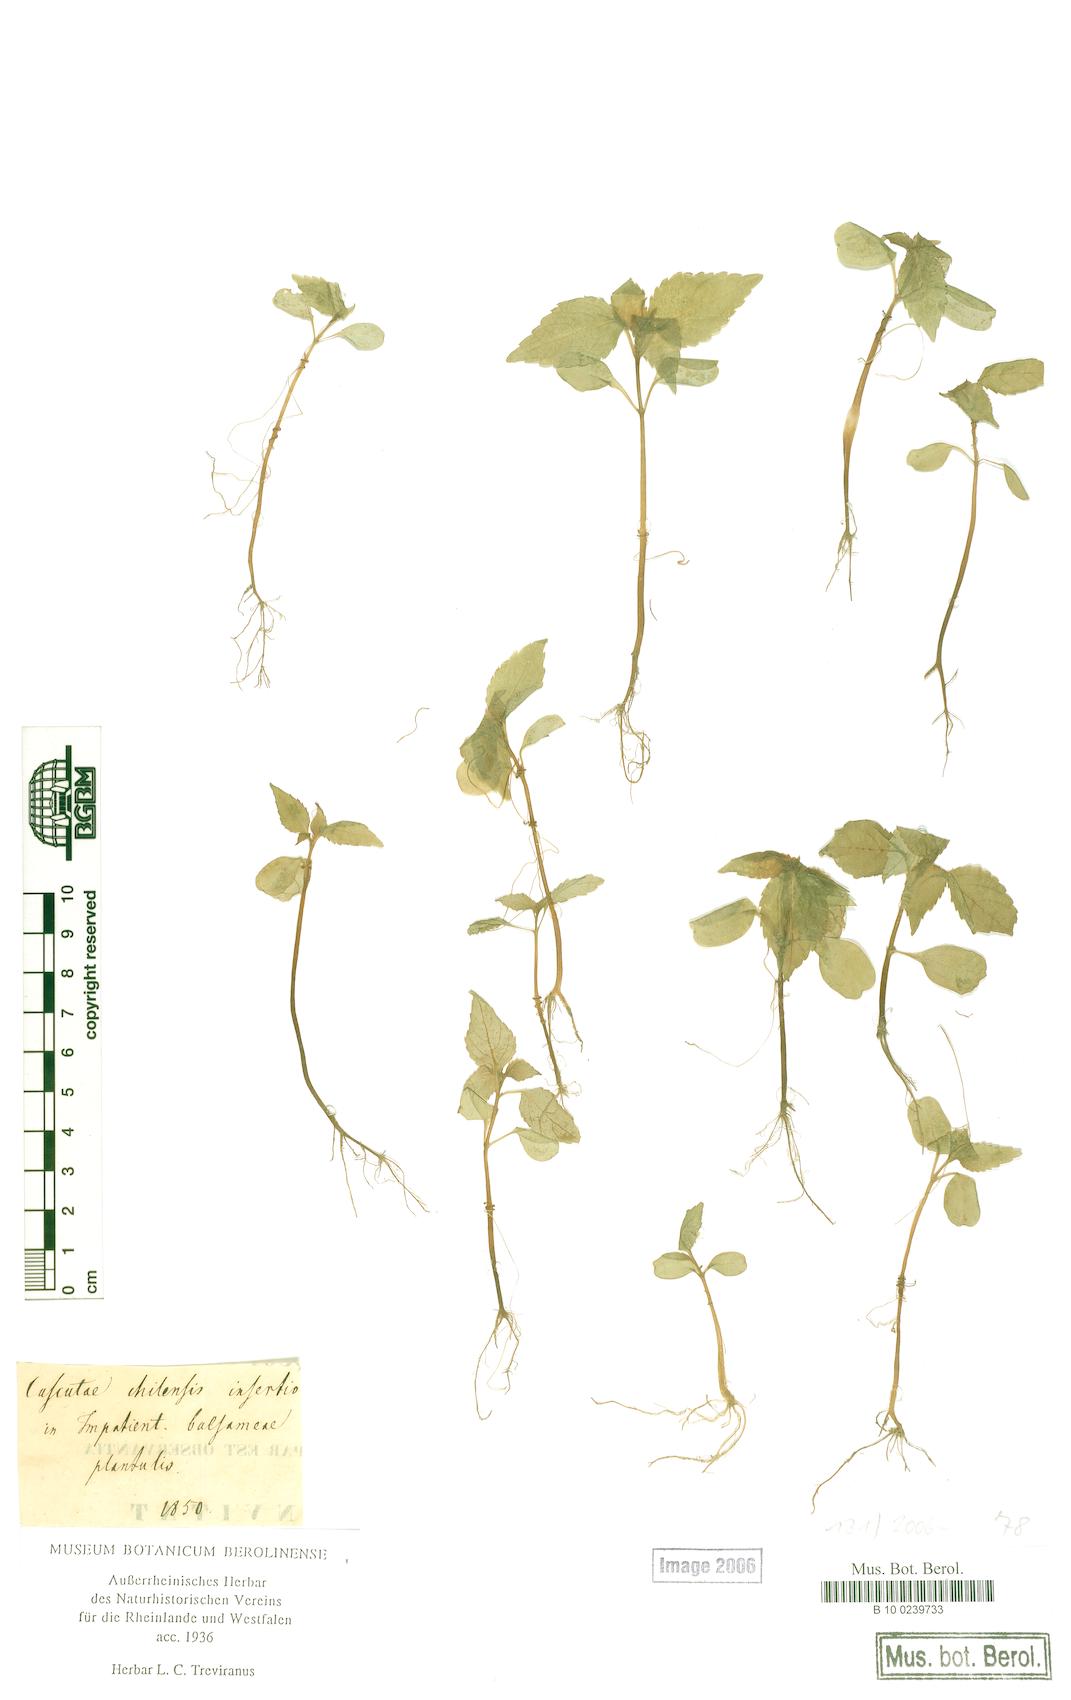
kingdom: Plantae
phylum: Tracheophyta
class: Magnoliopsida
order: Solanales
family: Convolvulaceae
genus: Cuscuta
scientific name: Cuscuta chilensis
